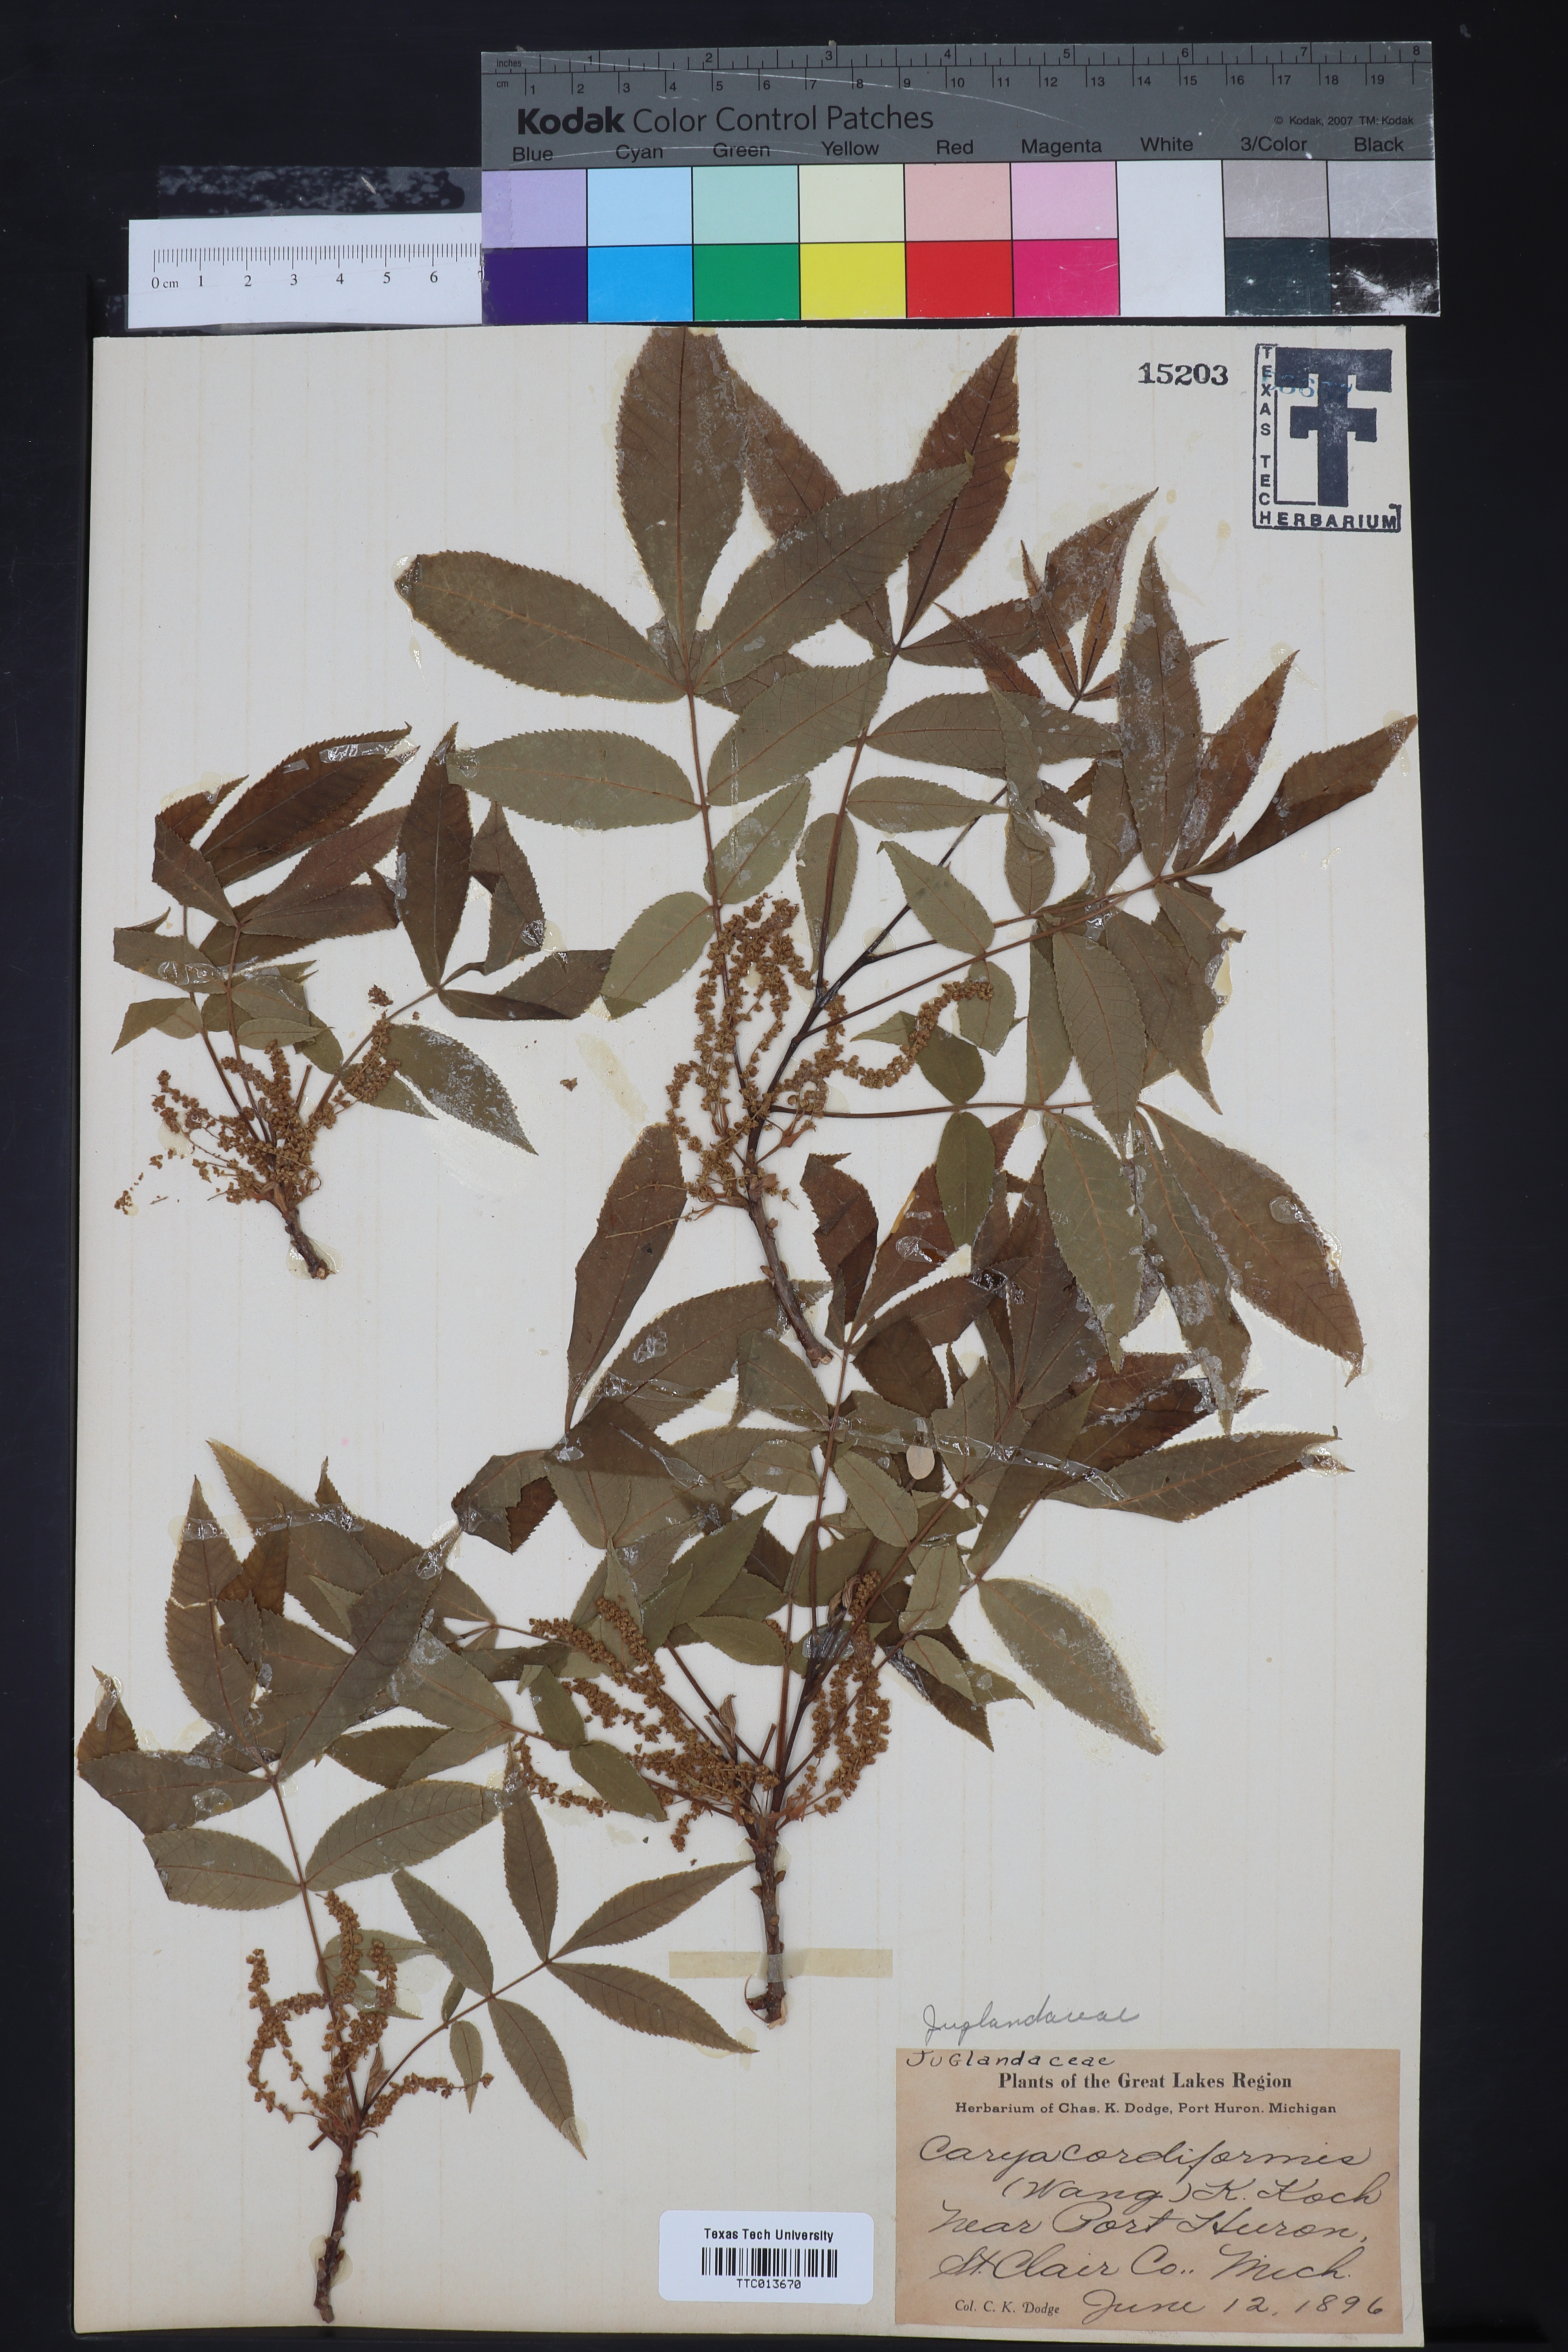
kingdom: Plantae
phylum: Tracheophyta
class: Magnoliopsida
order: Fagales
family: Juglandaceae
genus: Carya
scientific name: Carya cordiformis
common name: Bitternut hickory
